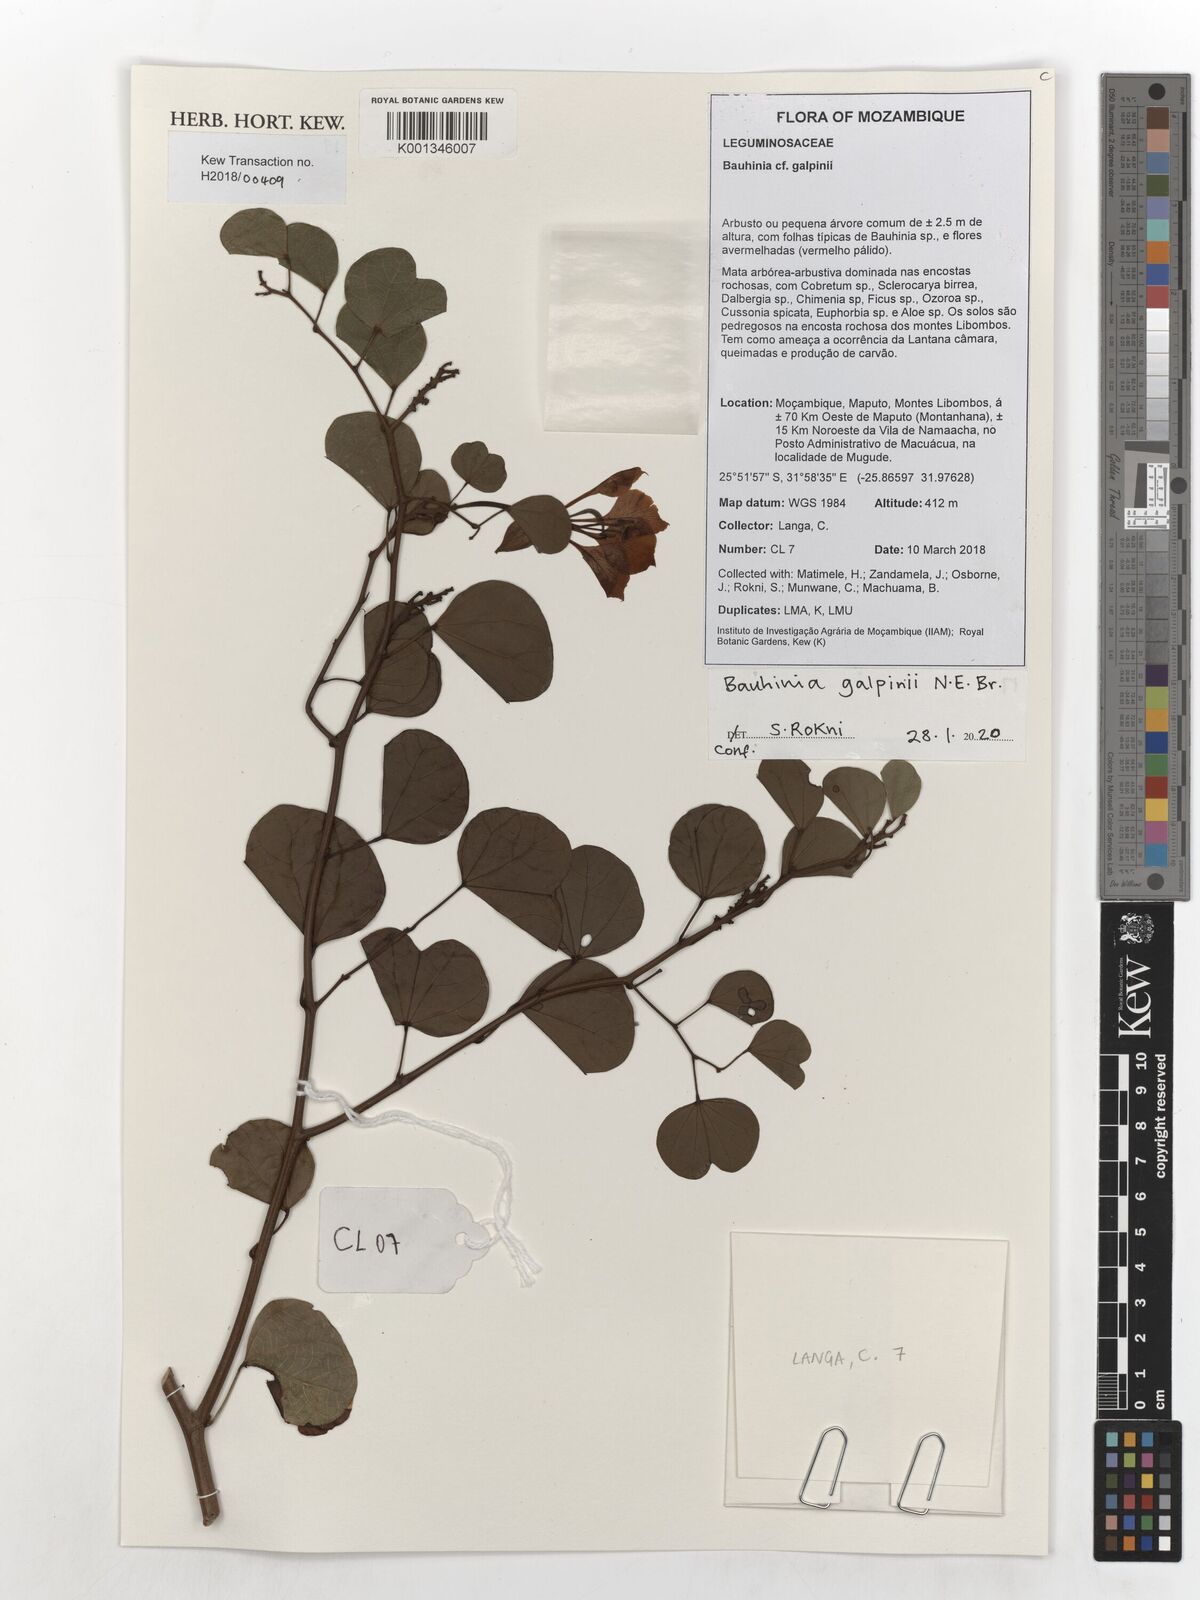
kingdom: Plantae
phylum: Tracheophyta
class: Magnoliopsida
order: Fabales
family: Fabaceae
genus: Bauhinia
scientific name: Bauhinia galpinii
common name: African plume
